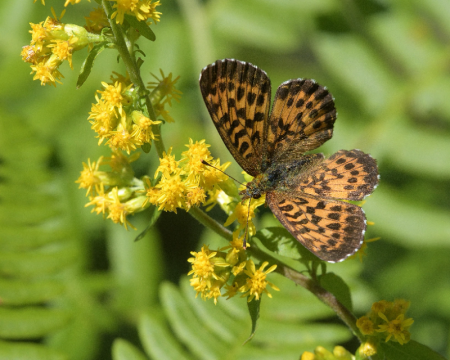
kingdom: Animalia
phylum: Arthropoda
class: Insecta
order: Lepidoptera
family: Nymphalidae
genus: Boloria
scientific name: Boloria chariclea
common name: Arctic Fritillary
